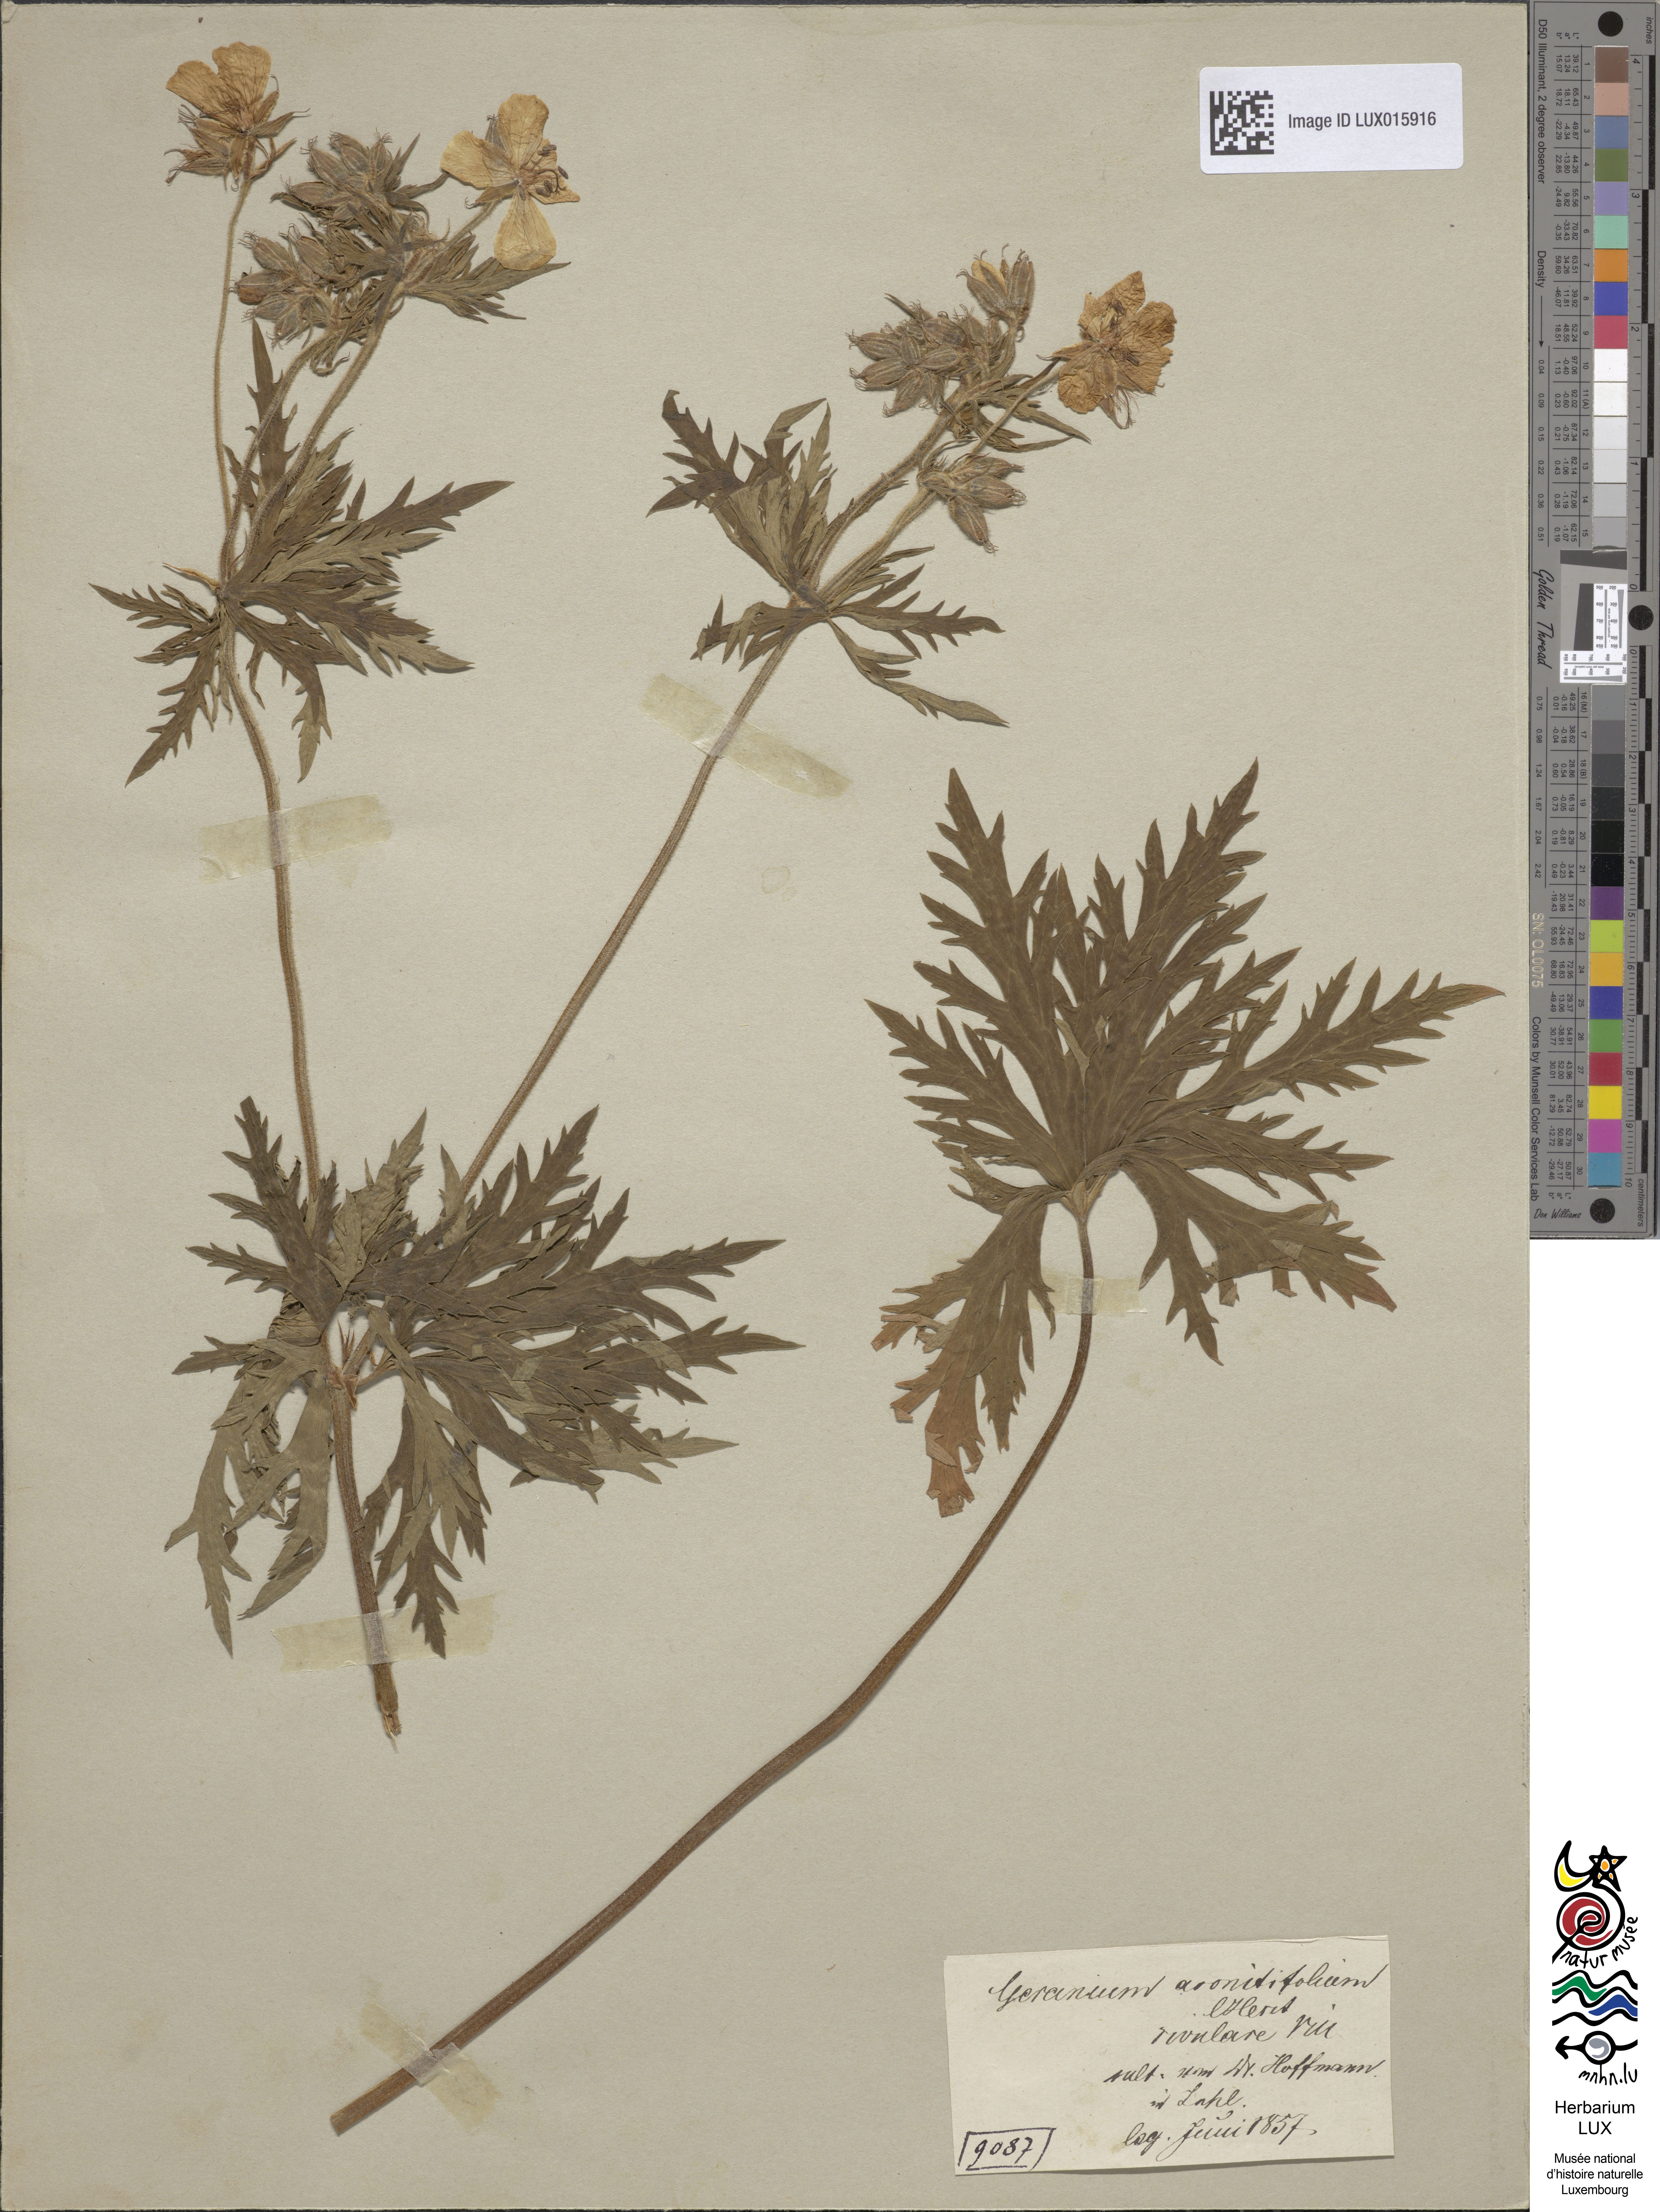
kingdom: Plantae
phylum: Tracheophyta
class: Magnoliopsida
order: Geraniales
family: Geraniaceae
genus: Geranium
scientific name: Geranium rivulare
